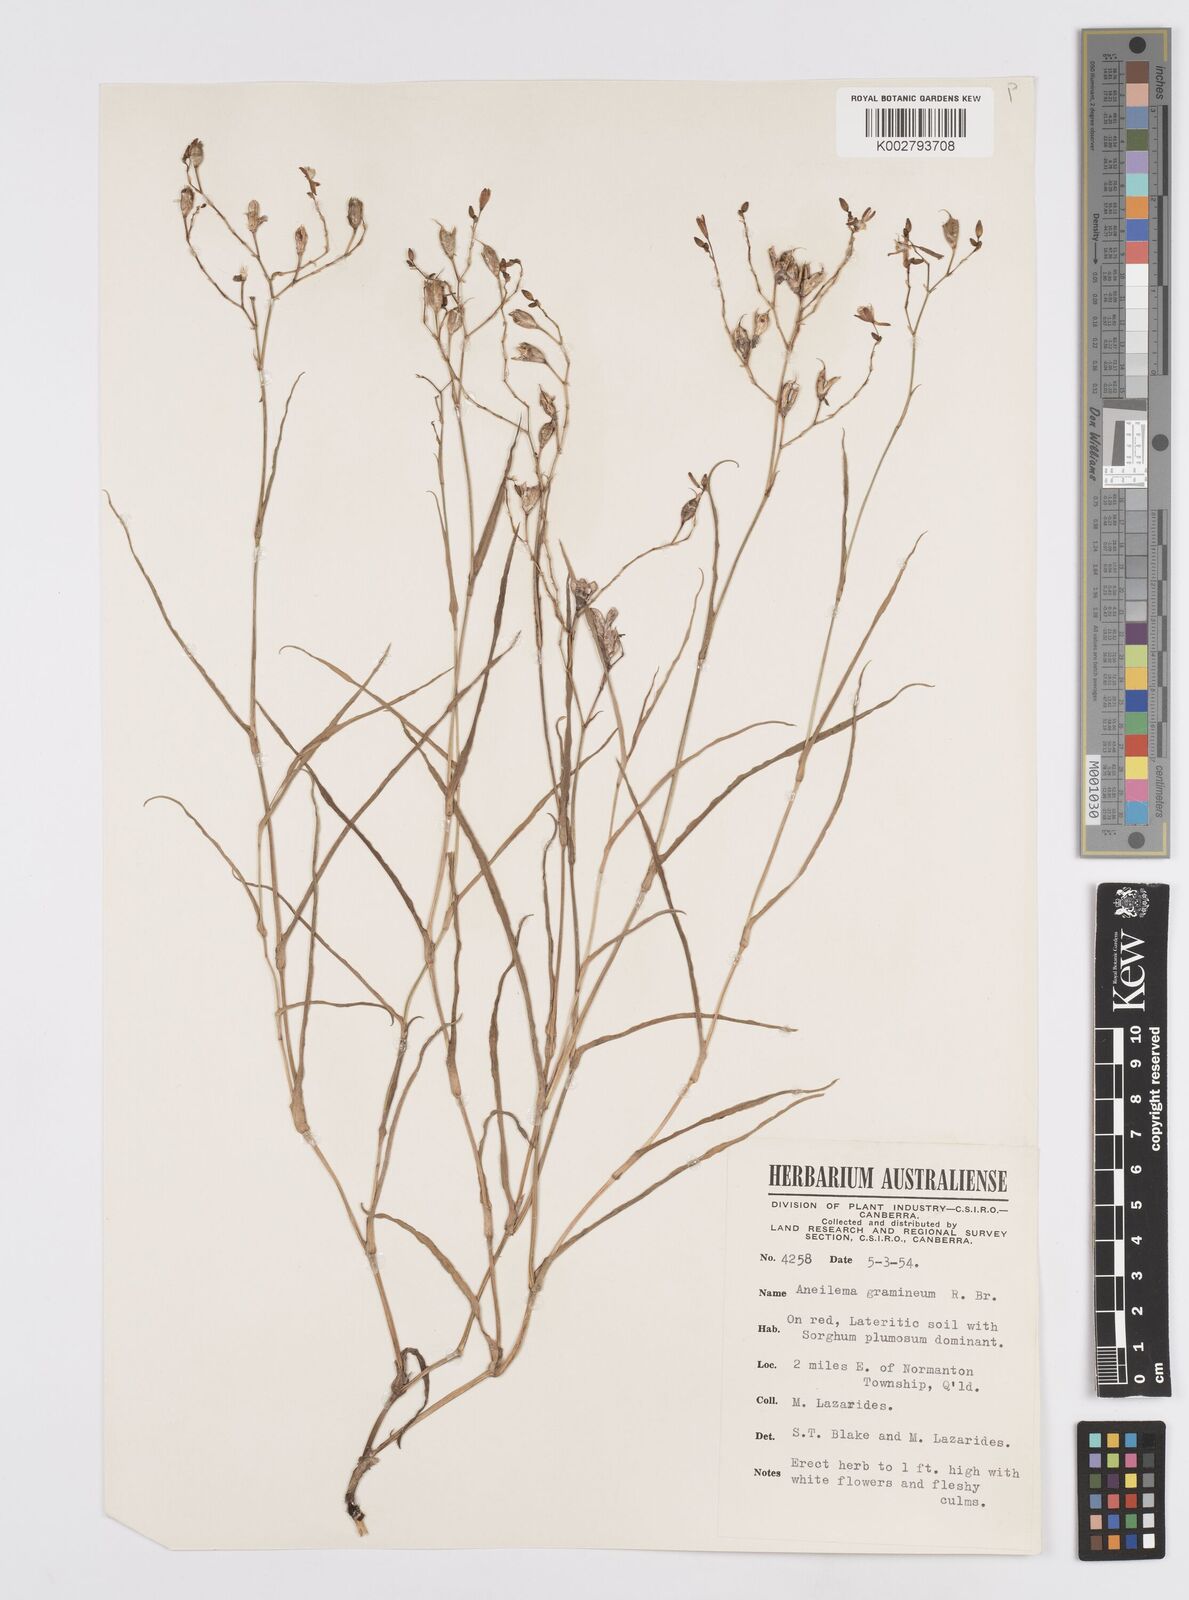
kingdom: Plantae
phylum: Tracheophyta
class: Liliopsida
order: Commelinales
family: Commelinaceae
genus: Murdannia
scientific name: Murdannia graminea
